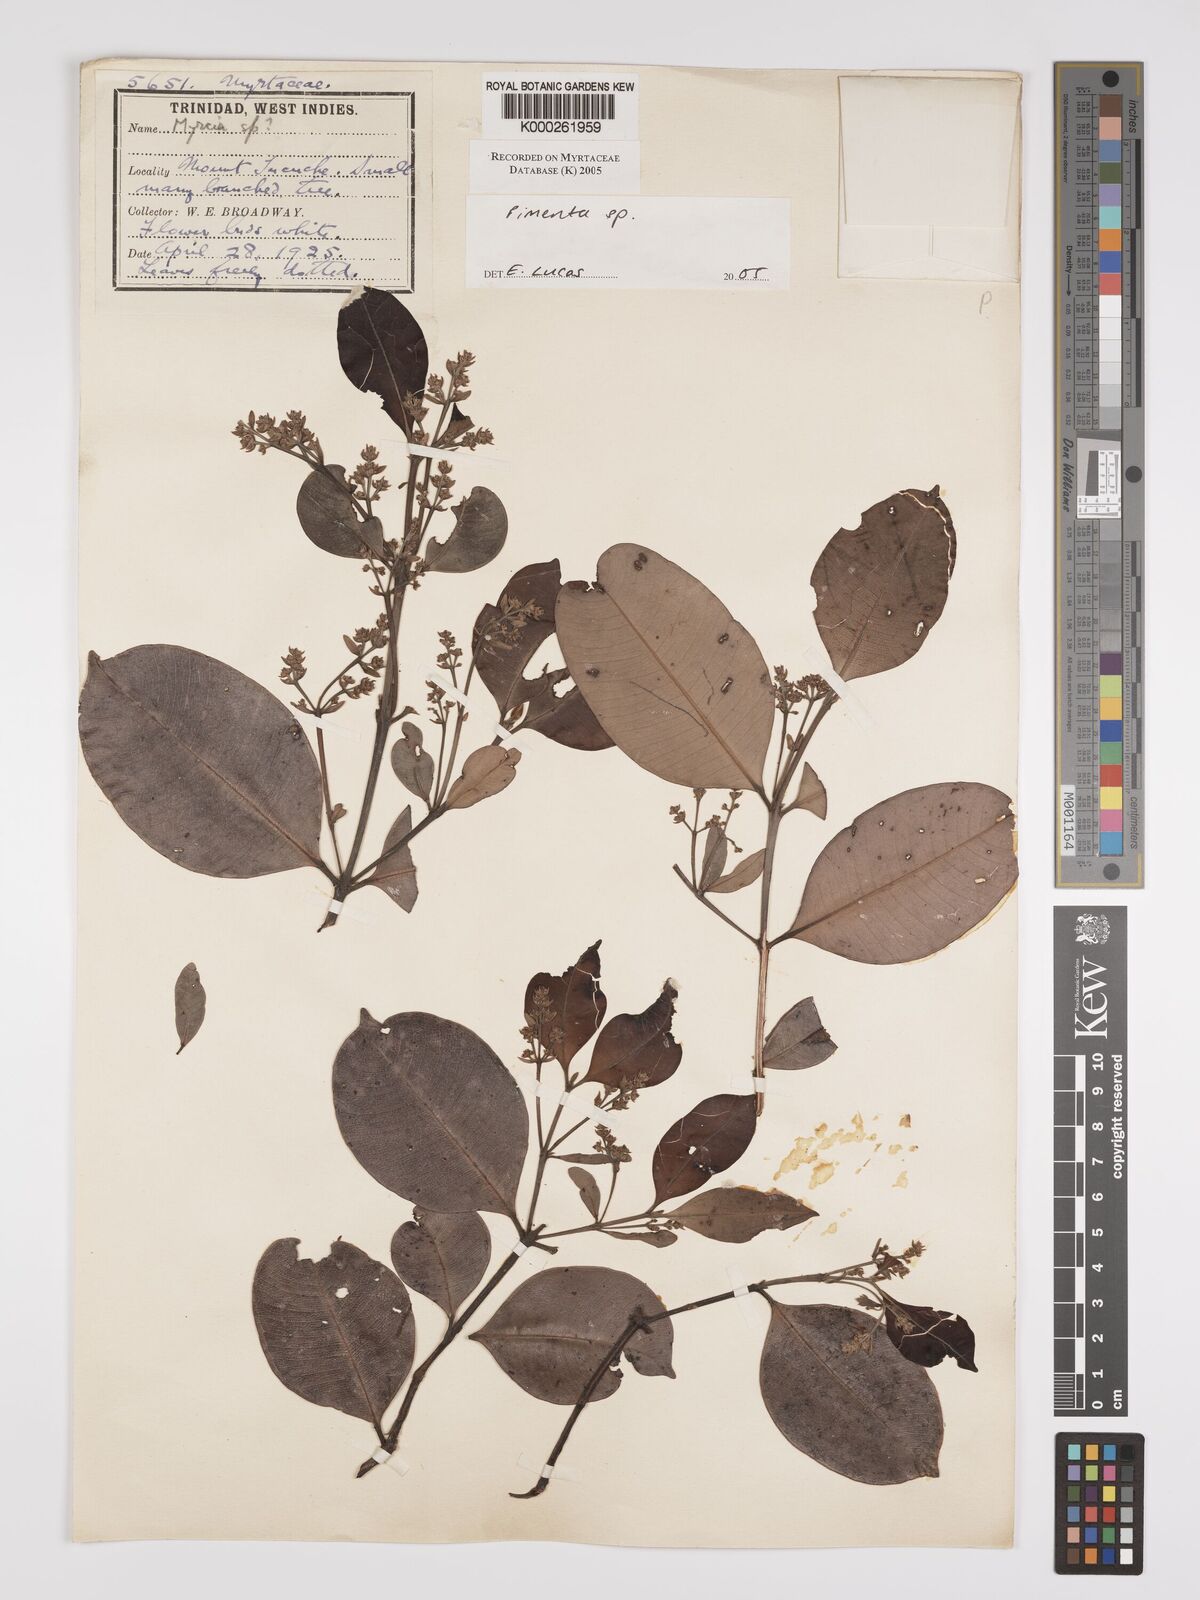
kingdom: Plantae
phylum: Tracheophyta
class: Magnoliopsida
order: Myrtales
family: Myrtaceae
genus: Pimenta
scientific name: Pimenta
